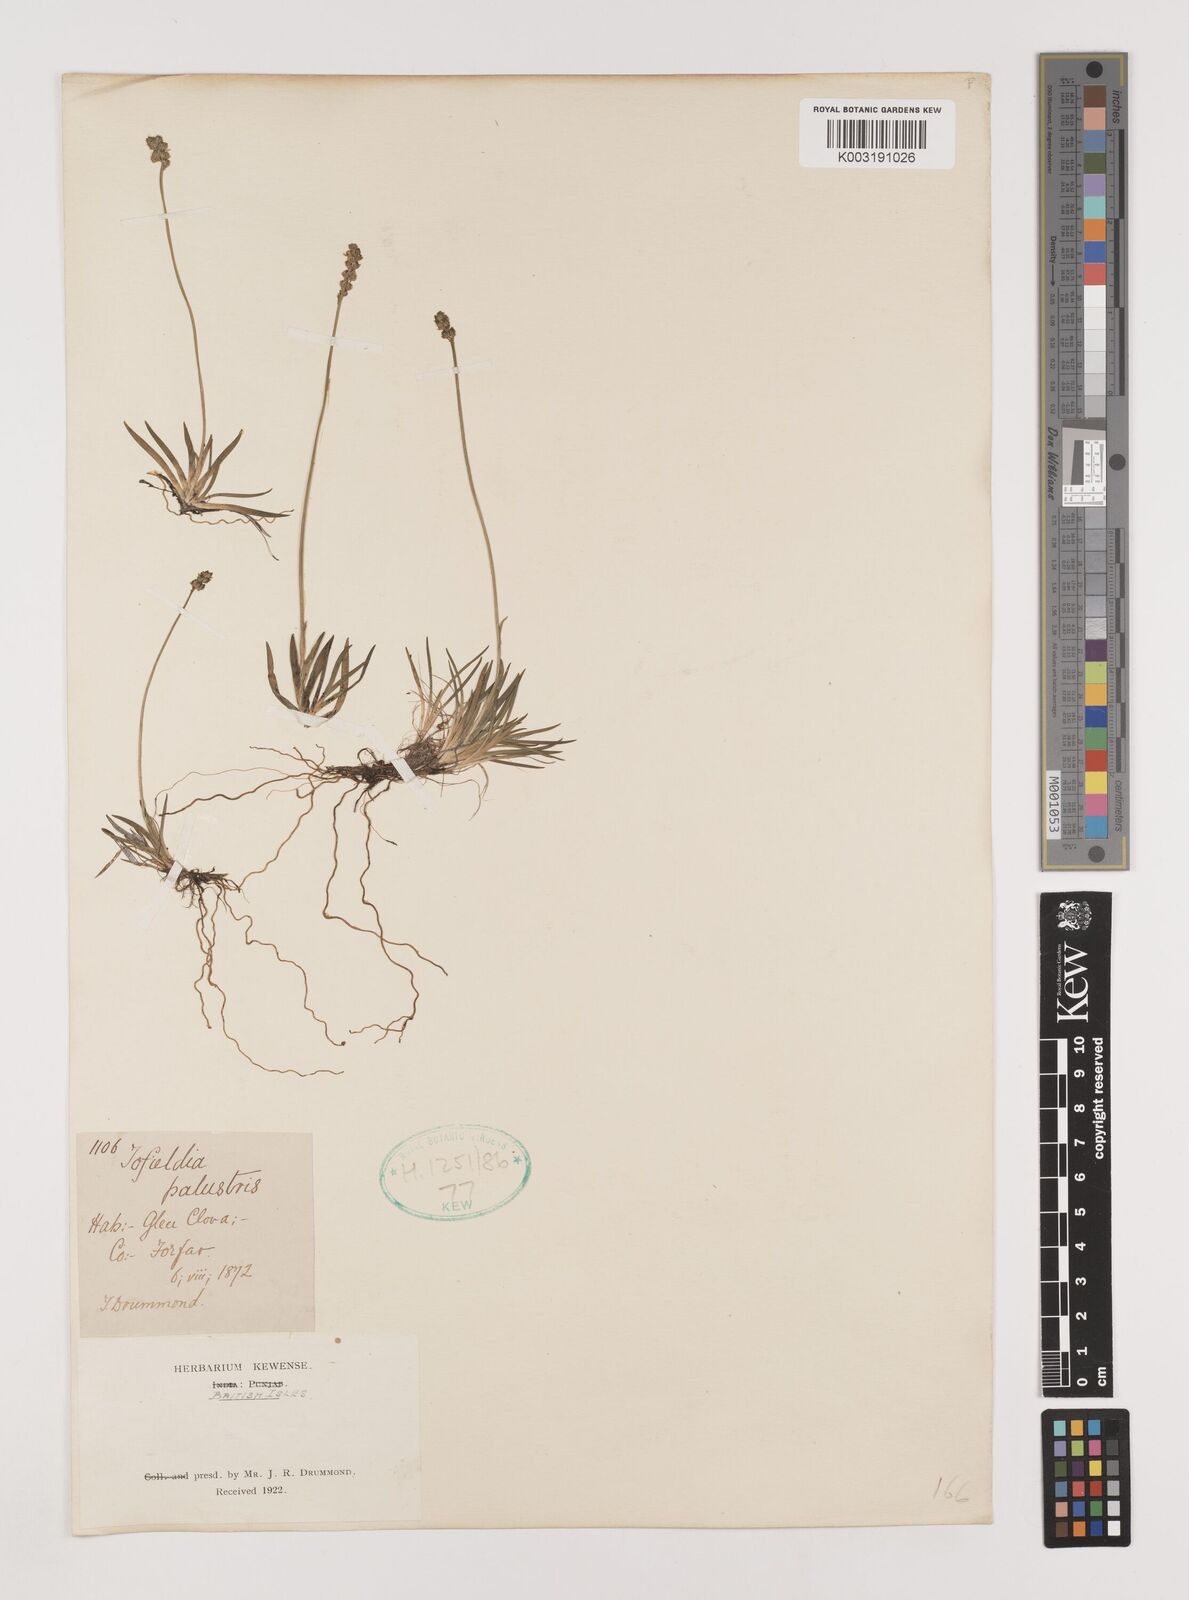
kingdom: Plantae
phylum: Tracheophyta
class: Liliopsida
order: Alismatales
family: Tofieldiaceae
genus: Tofieldia
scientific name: Tofieldia pusilla
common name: Scottish false asphodel
